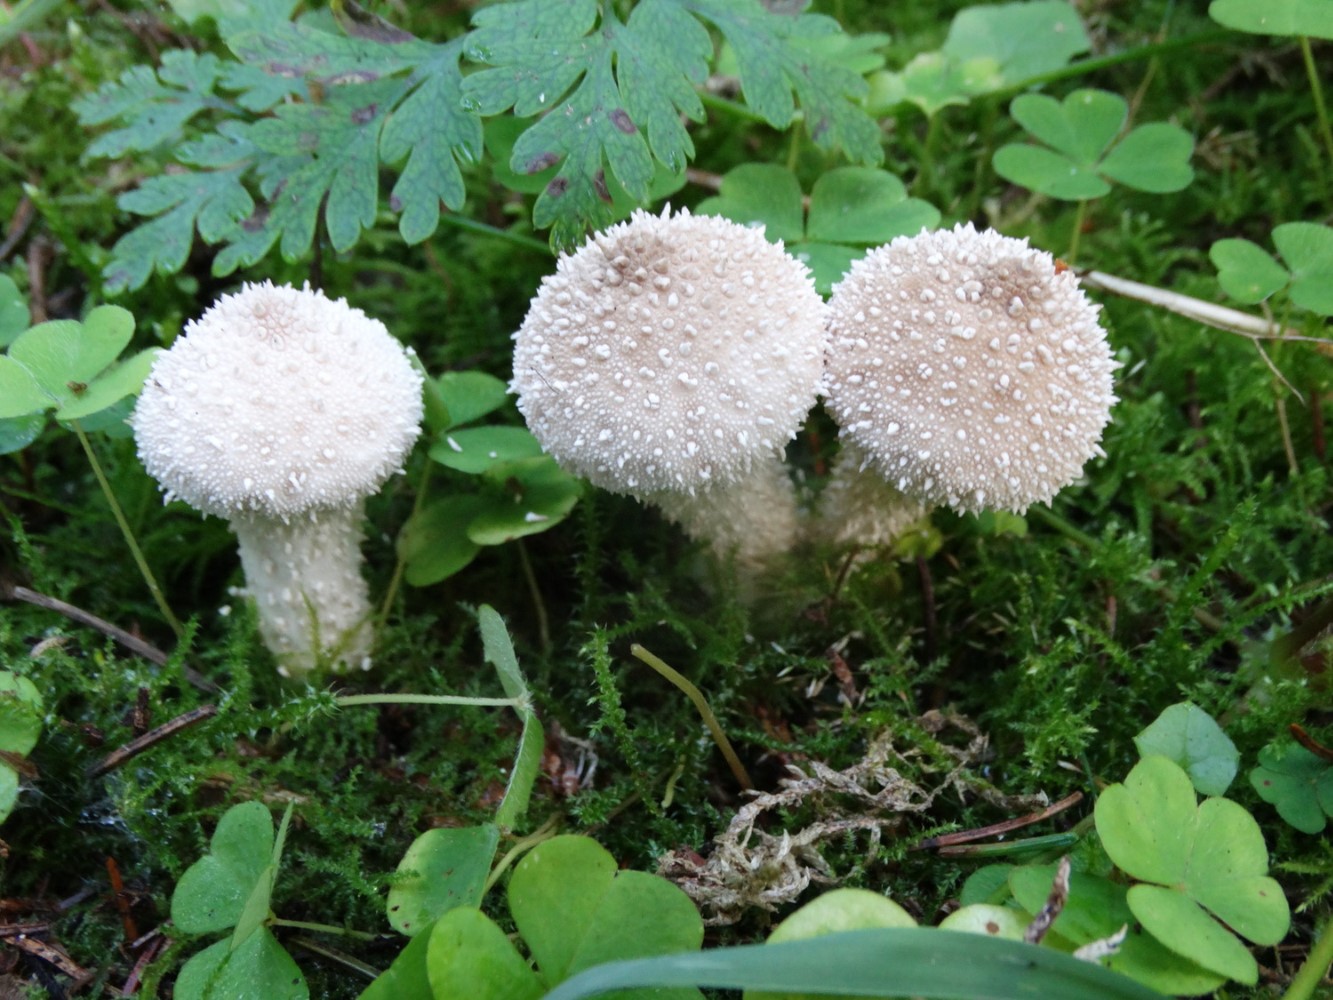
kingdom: Fungi
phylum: Basidiomycota
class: Agaricomycetes
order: Agaricales
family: Lycoperdaceae
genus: Lycoperdon
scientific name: Lycoperdon perlatum
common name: krystal-støvbold
